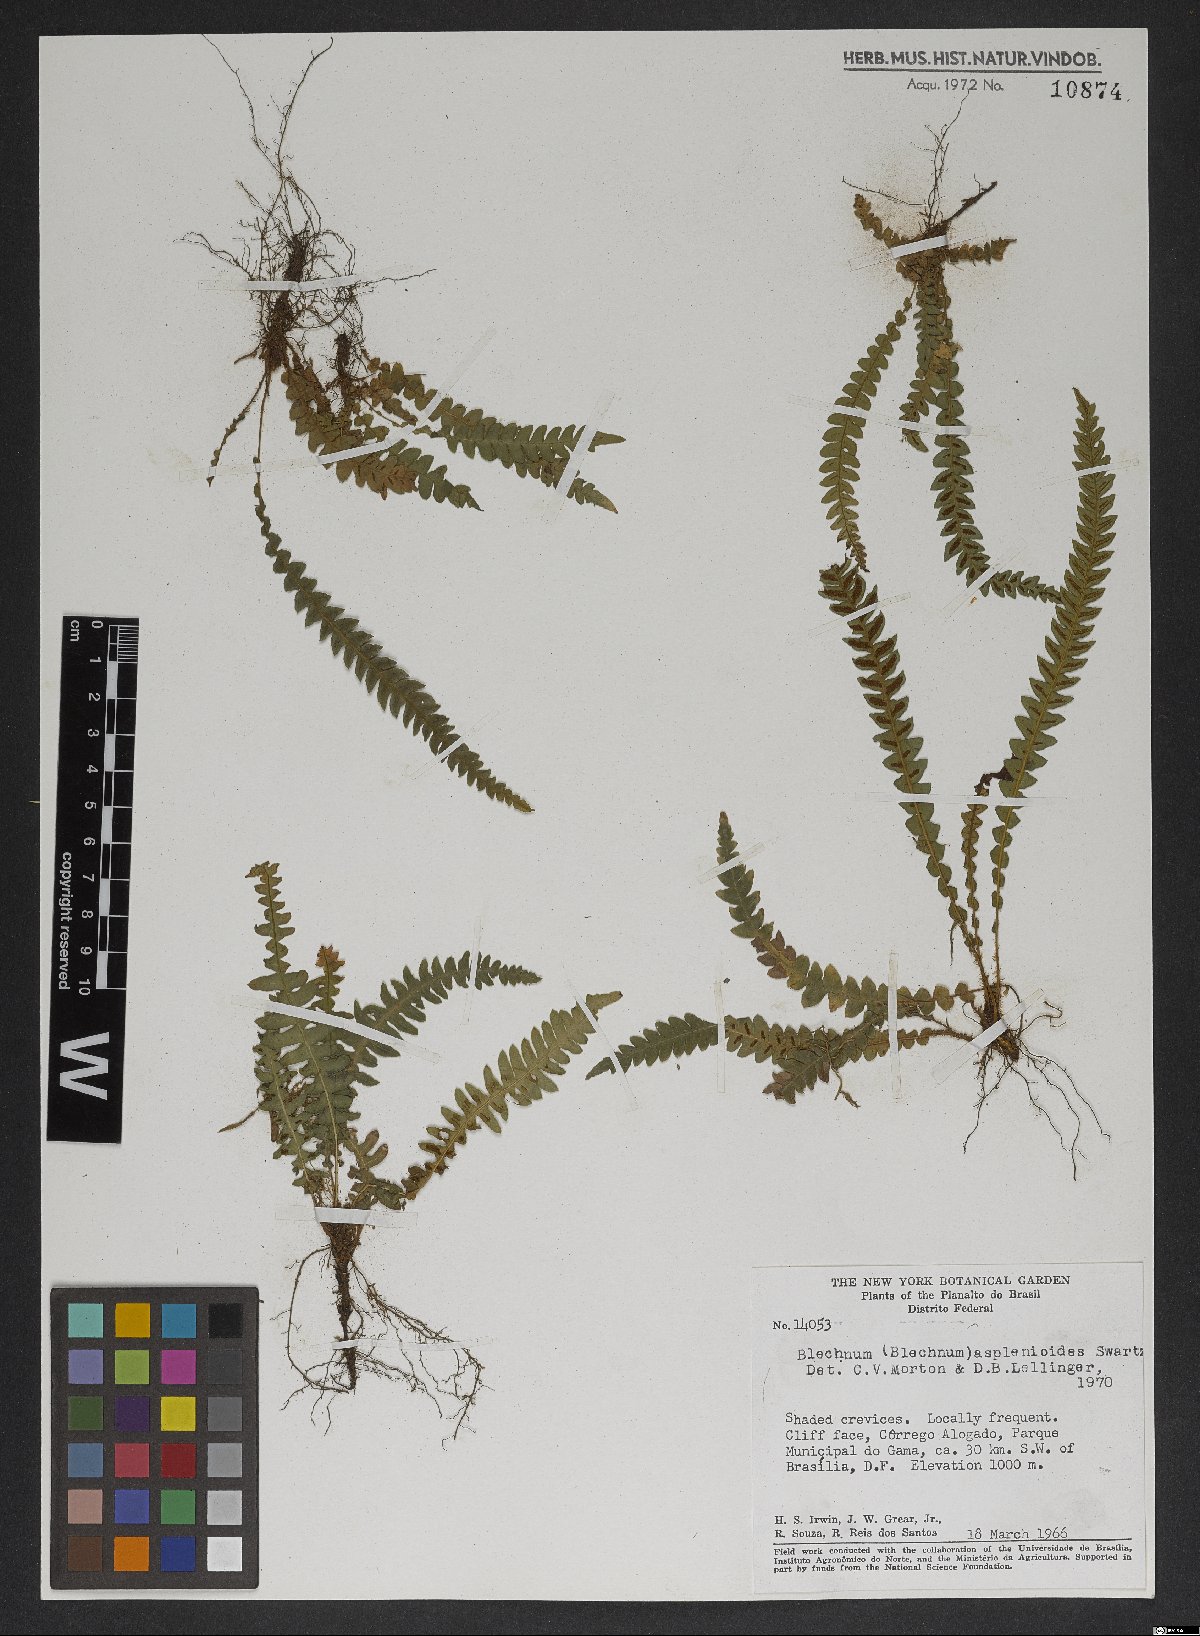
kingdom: Plantae
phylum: Tracheophyta
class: Polypodiopsida
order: Polypodiales
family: Blechnaceae
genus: Blechnum
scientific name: Blechnum asplenioides
